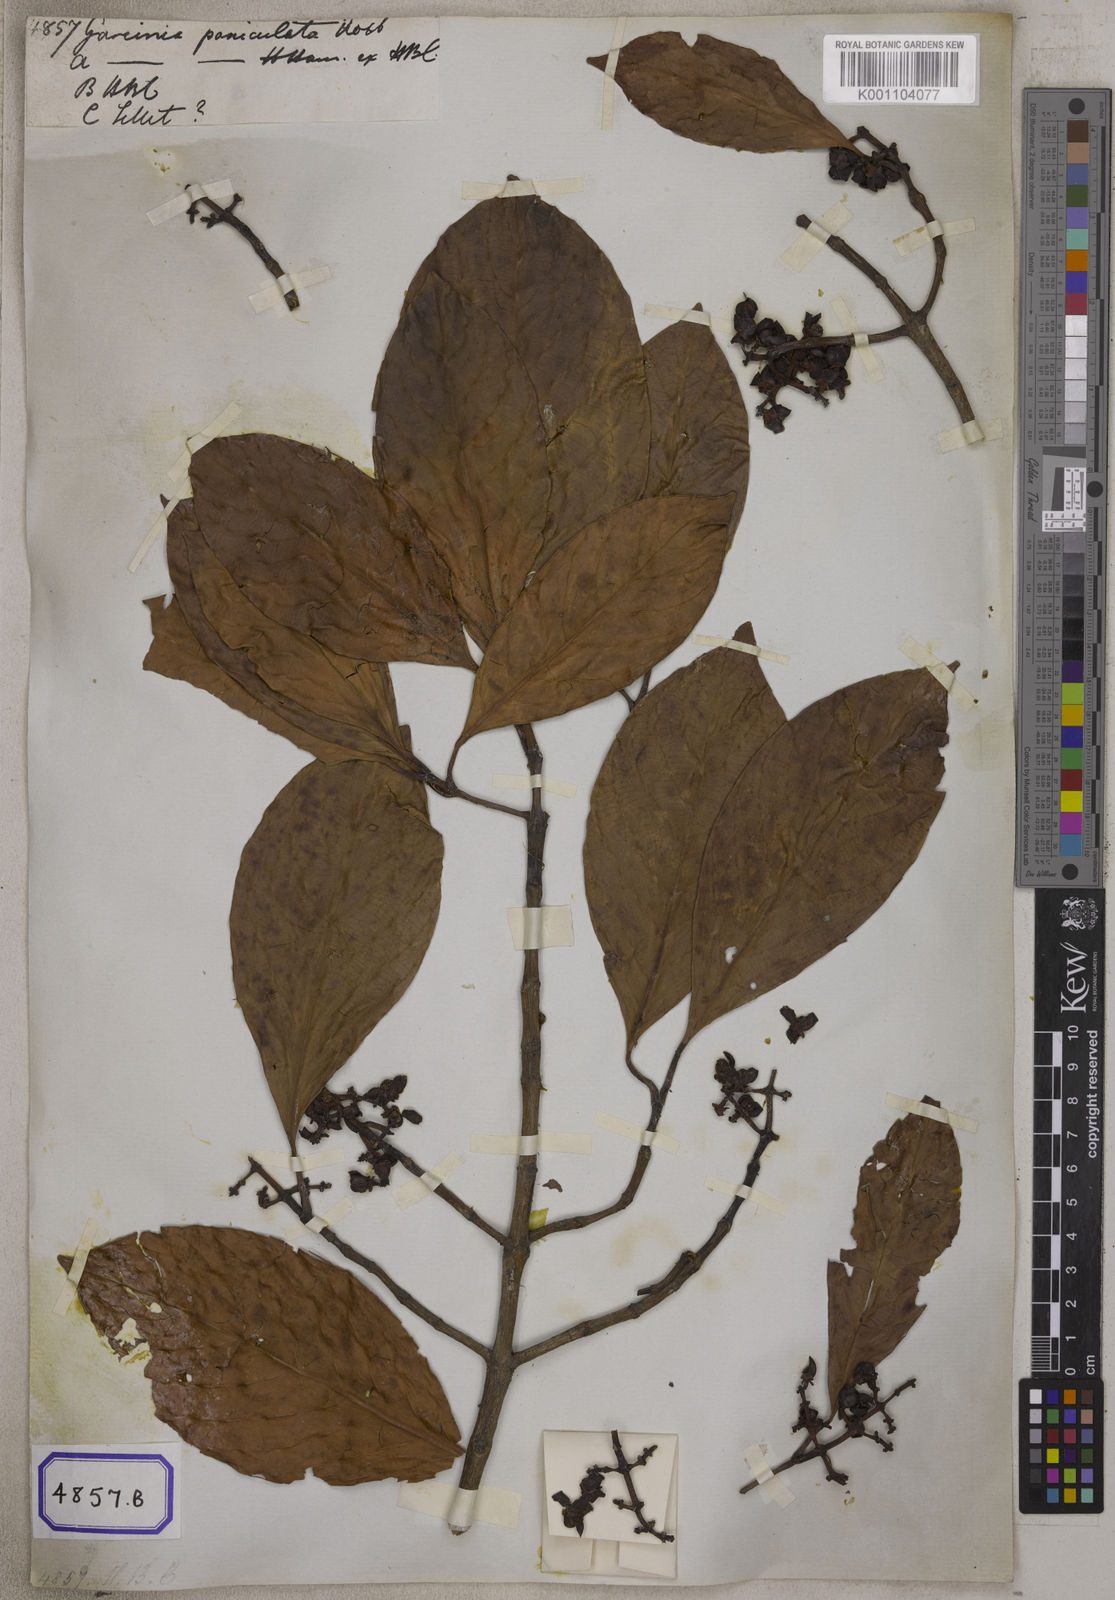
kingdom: Plantae
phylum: Tracheophyta
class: Magnoliopsida
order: Malpighiales
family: Clusiaceae
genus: Garcinia
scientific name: Garcinia
